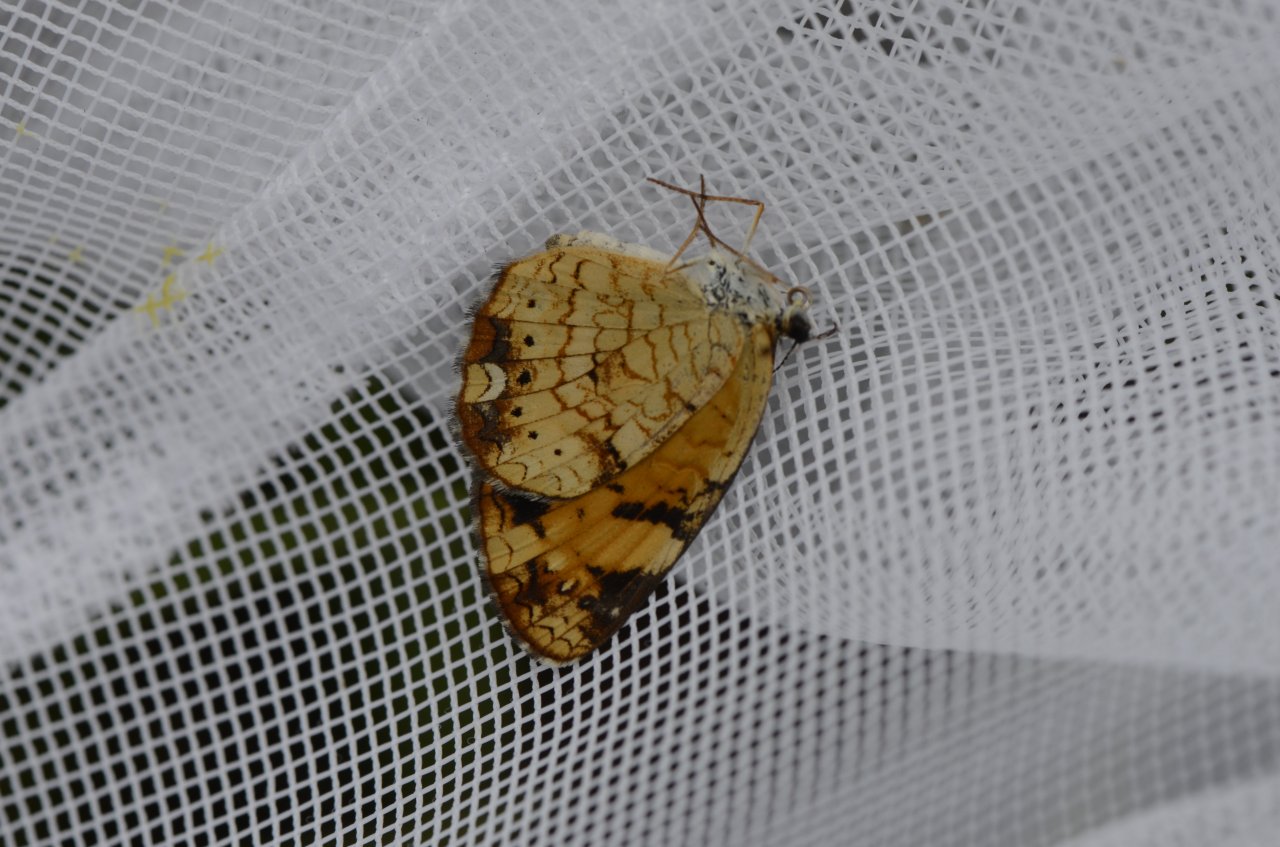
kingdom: Animalia
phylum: Arthropoda
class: Insecta
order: Lepidoptera
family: Nymphalidae
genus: Phyciodes
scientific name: Phyciodes tharos
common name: Pearl Crescent
